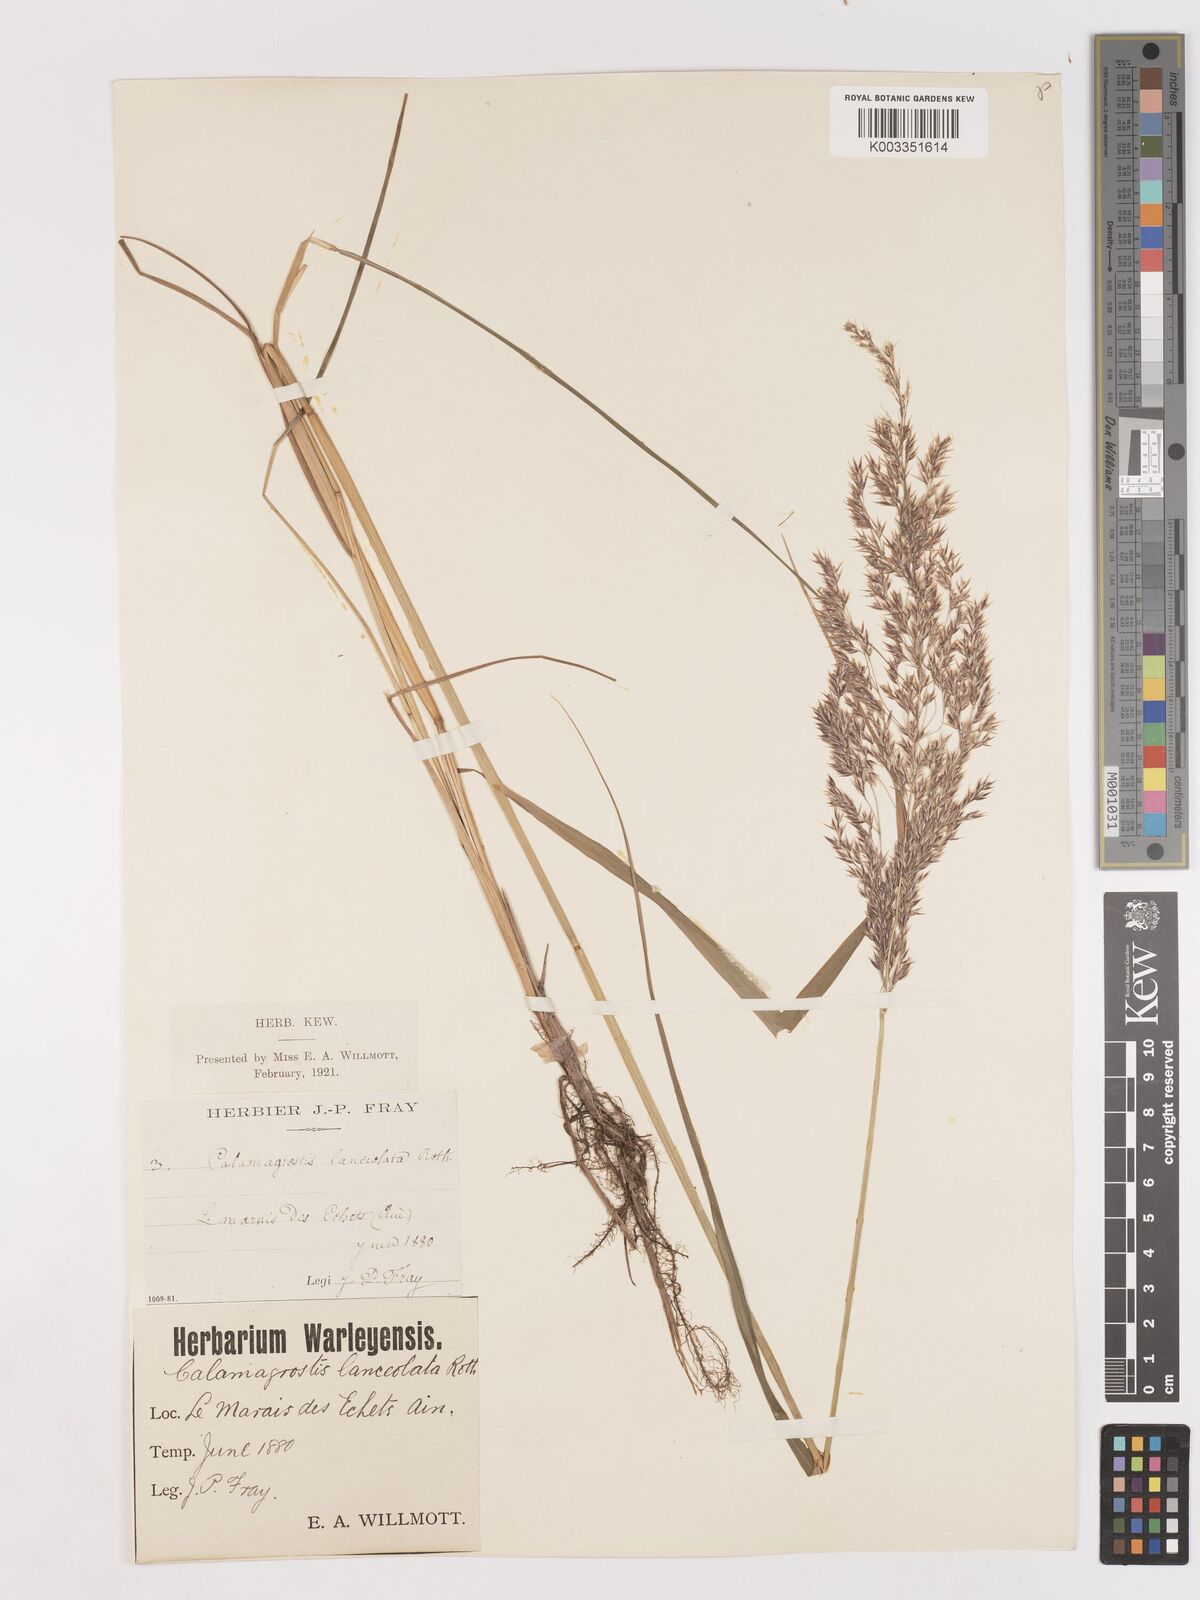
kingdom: Plantae
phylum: Tracheophyta
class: Liliopsida
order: Poales
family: Poaceae
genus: Calamagrostis
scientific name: Calamagrostis canescens
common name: Purple small-reed
